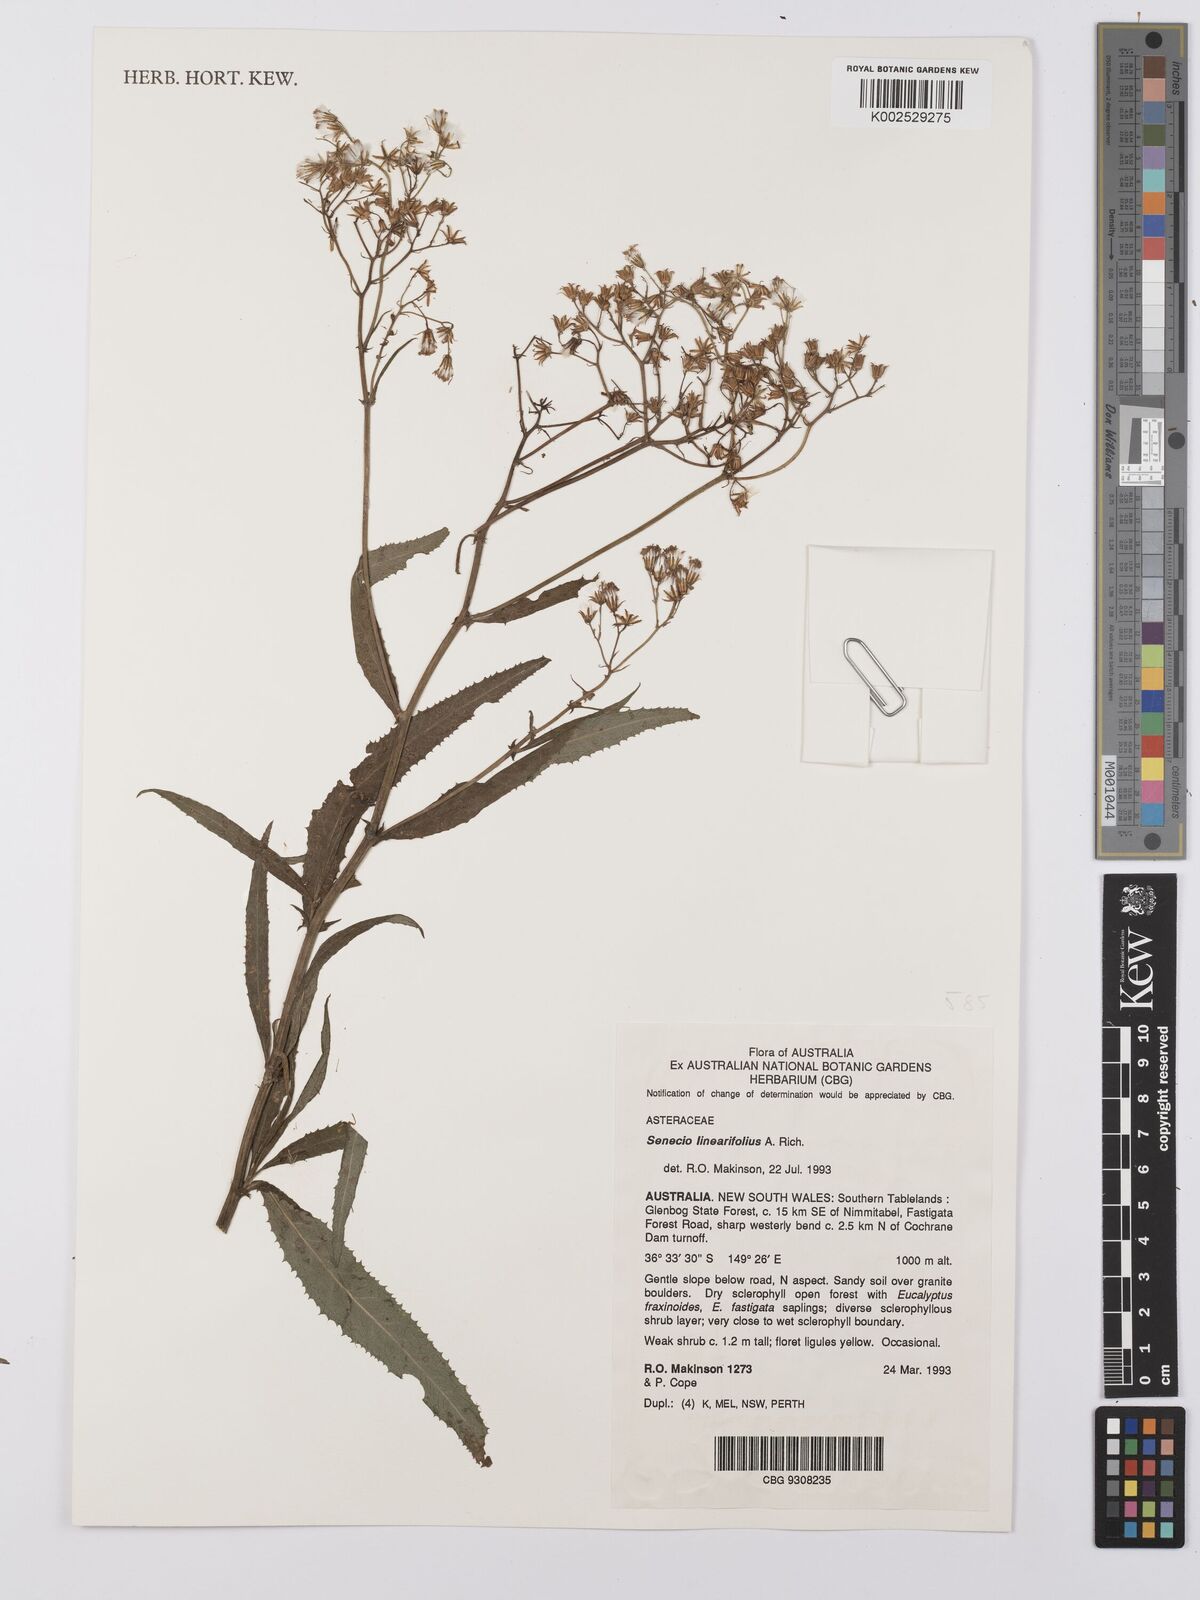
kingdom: Plantae
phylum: Tracheophyta
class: Magnoliopsida
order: Asterales
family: Asteraceae
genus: Senecio
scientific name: Senecio linearifolius
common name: Fireweed groundsel
